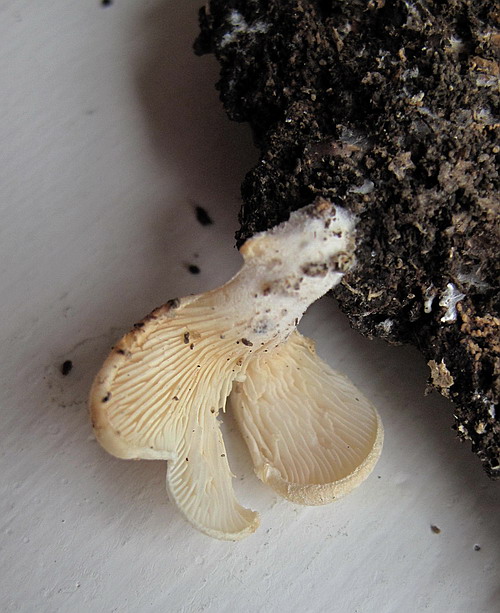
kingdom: Fungi
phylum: Basidiomycota
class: Agaricomycetes
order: Agaricales
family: Pleurotaceae
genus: Hohenbuehelia
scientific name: Hohenbuehelia auriscalpium
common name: spatel-filthat
